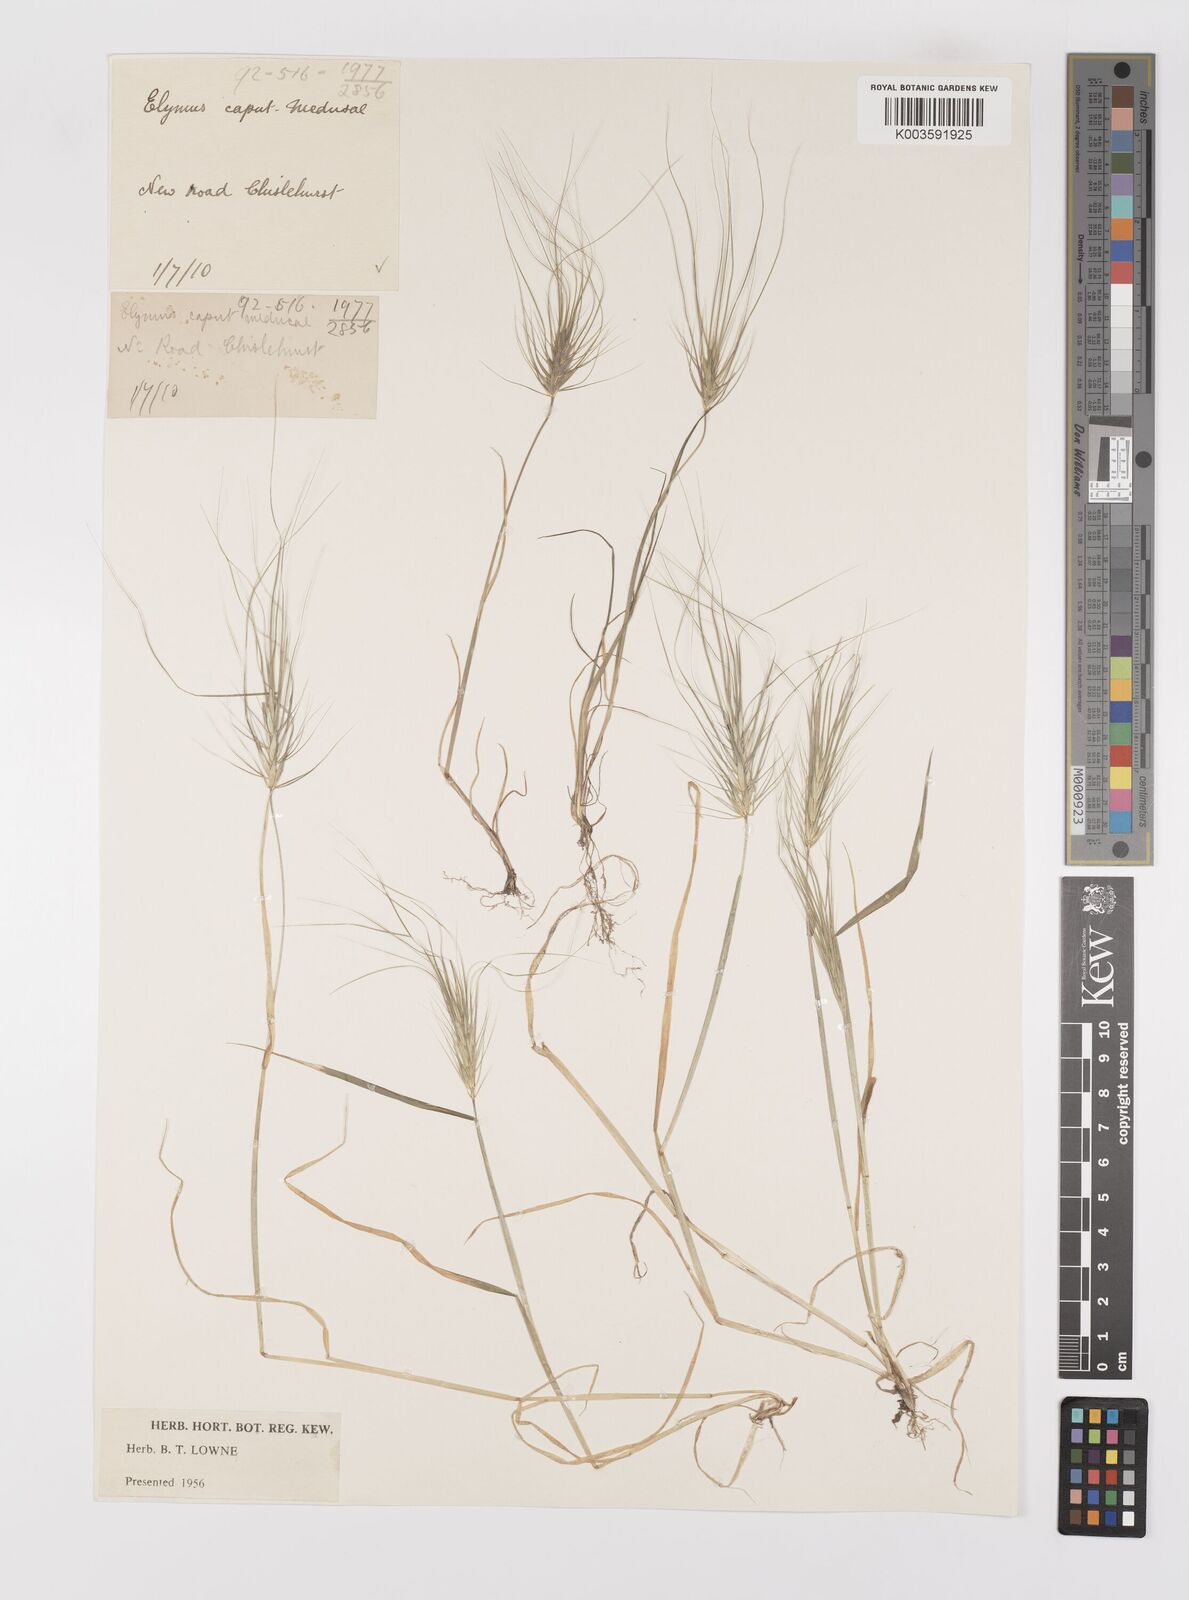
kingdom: Plantae
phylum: Tracheophyta
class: Liliopsida
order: Poales
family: Poaceae
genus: Taeniatherum
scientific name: Taeniatherum caput-medusae
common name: Medusahead
